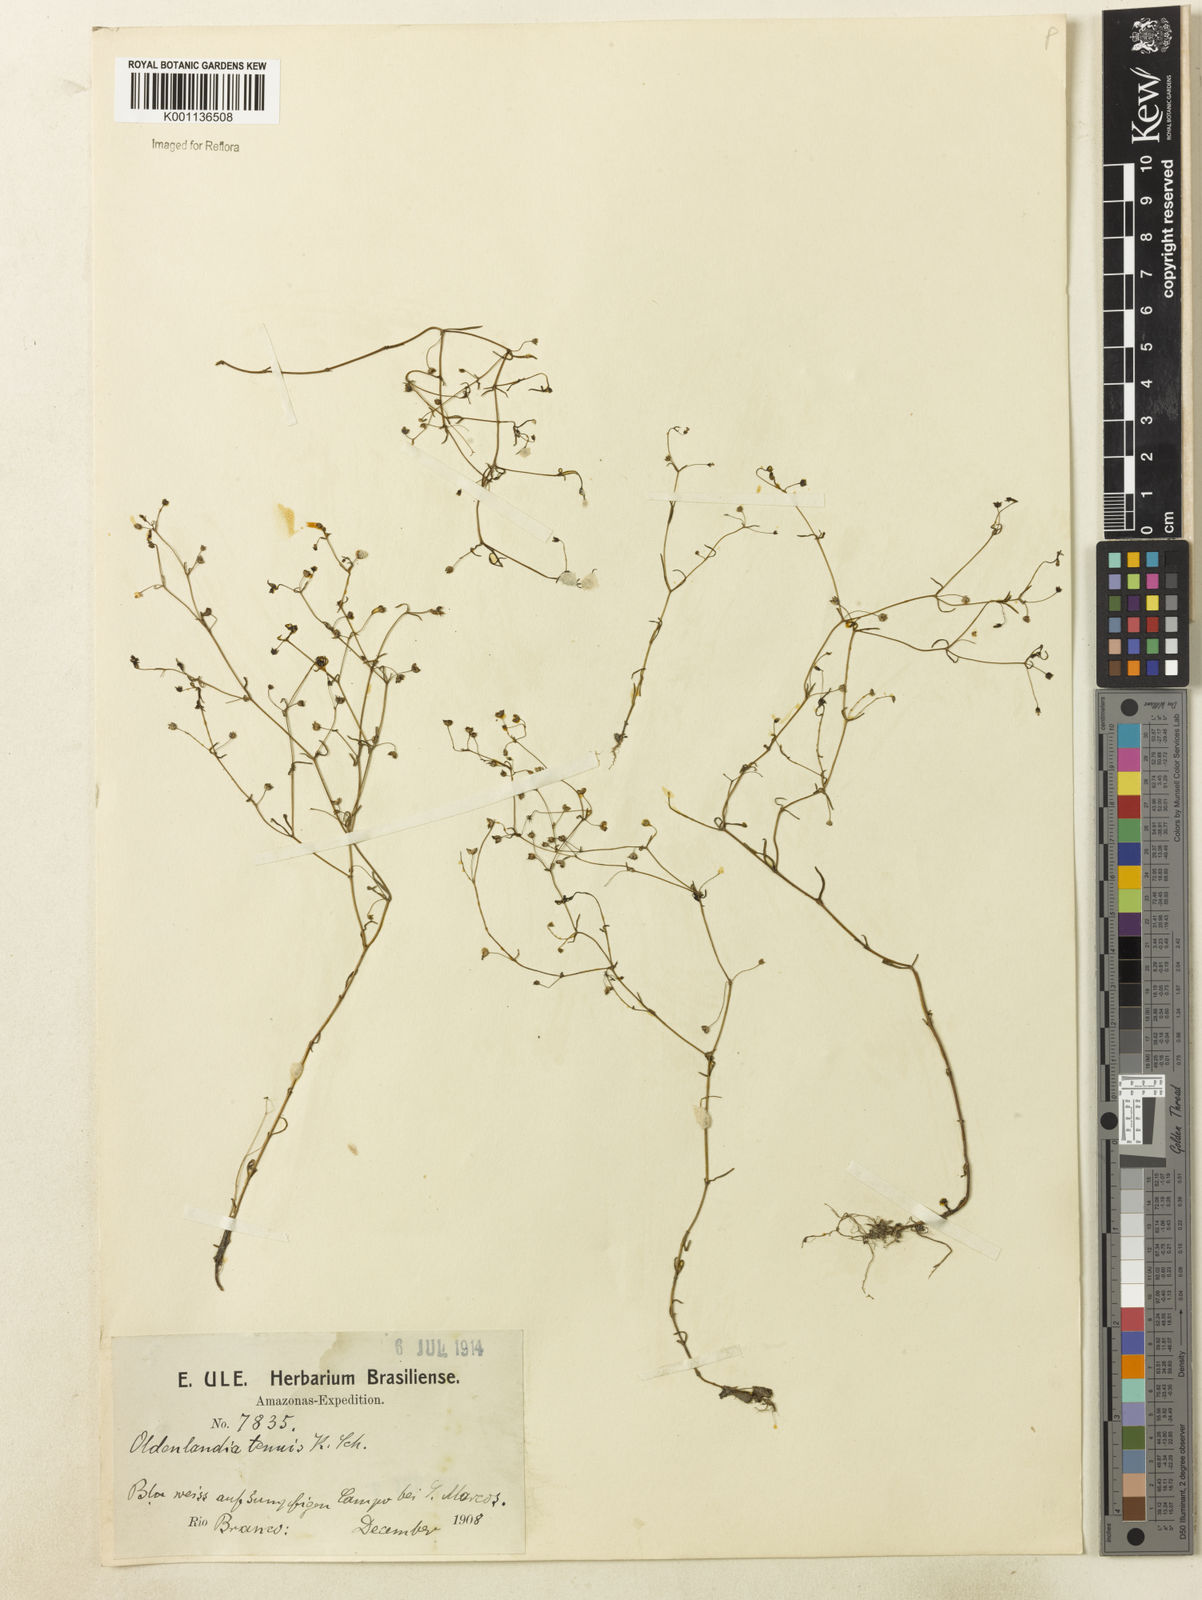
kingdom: Plantae
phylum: Tracheophyta
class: Magnoliopsida
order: Gentianales
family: Rubiaceae
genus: Oldenlandia
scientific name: Oldenlandia tenuis
